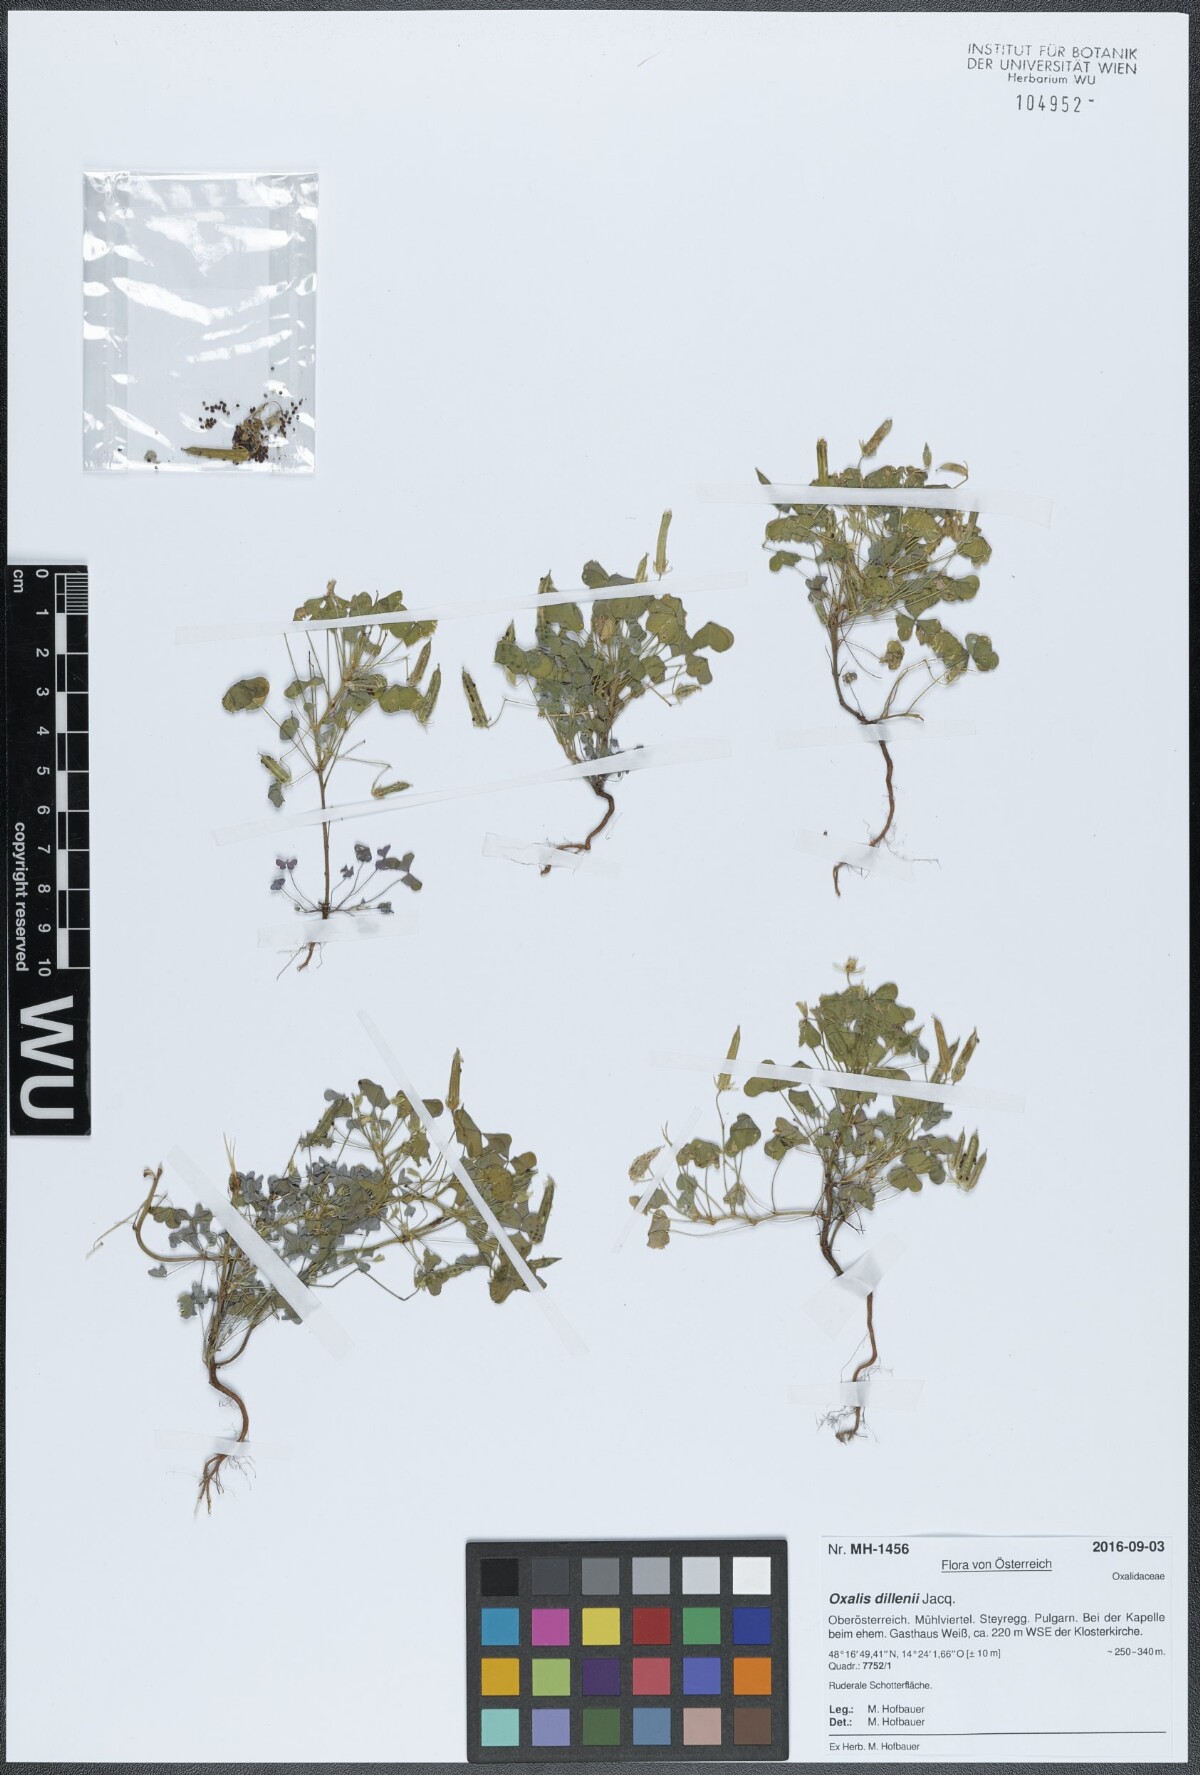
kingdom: Plantae
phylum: Tracheophyta
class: Magnoliopsida
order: Oxalidales
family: Oxalidaceae
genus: Oxalis
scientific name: Oxalis dillenii
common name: Sussex yellow-sorrel
